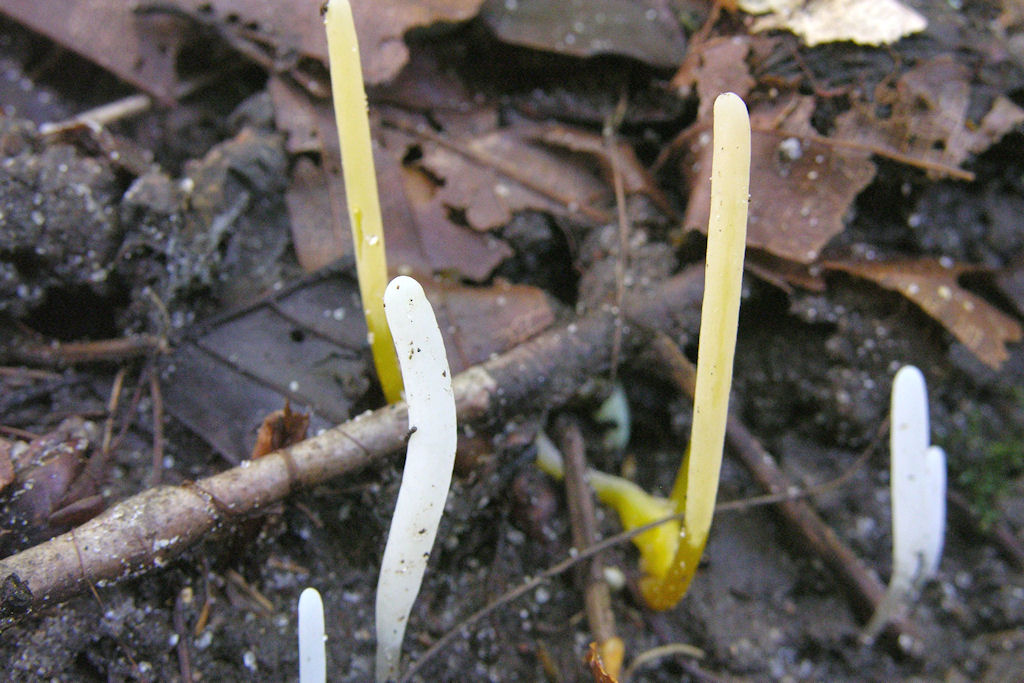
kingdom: Fungi
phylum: Basidiomycota
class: Agaricomycetes
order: Agaricales
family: Clavariaceae
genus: Clavaria
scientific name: Clavaria flavostellifera
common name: stjernegul køllesvamp
